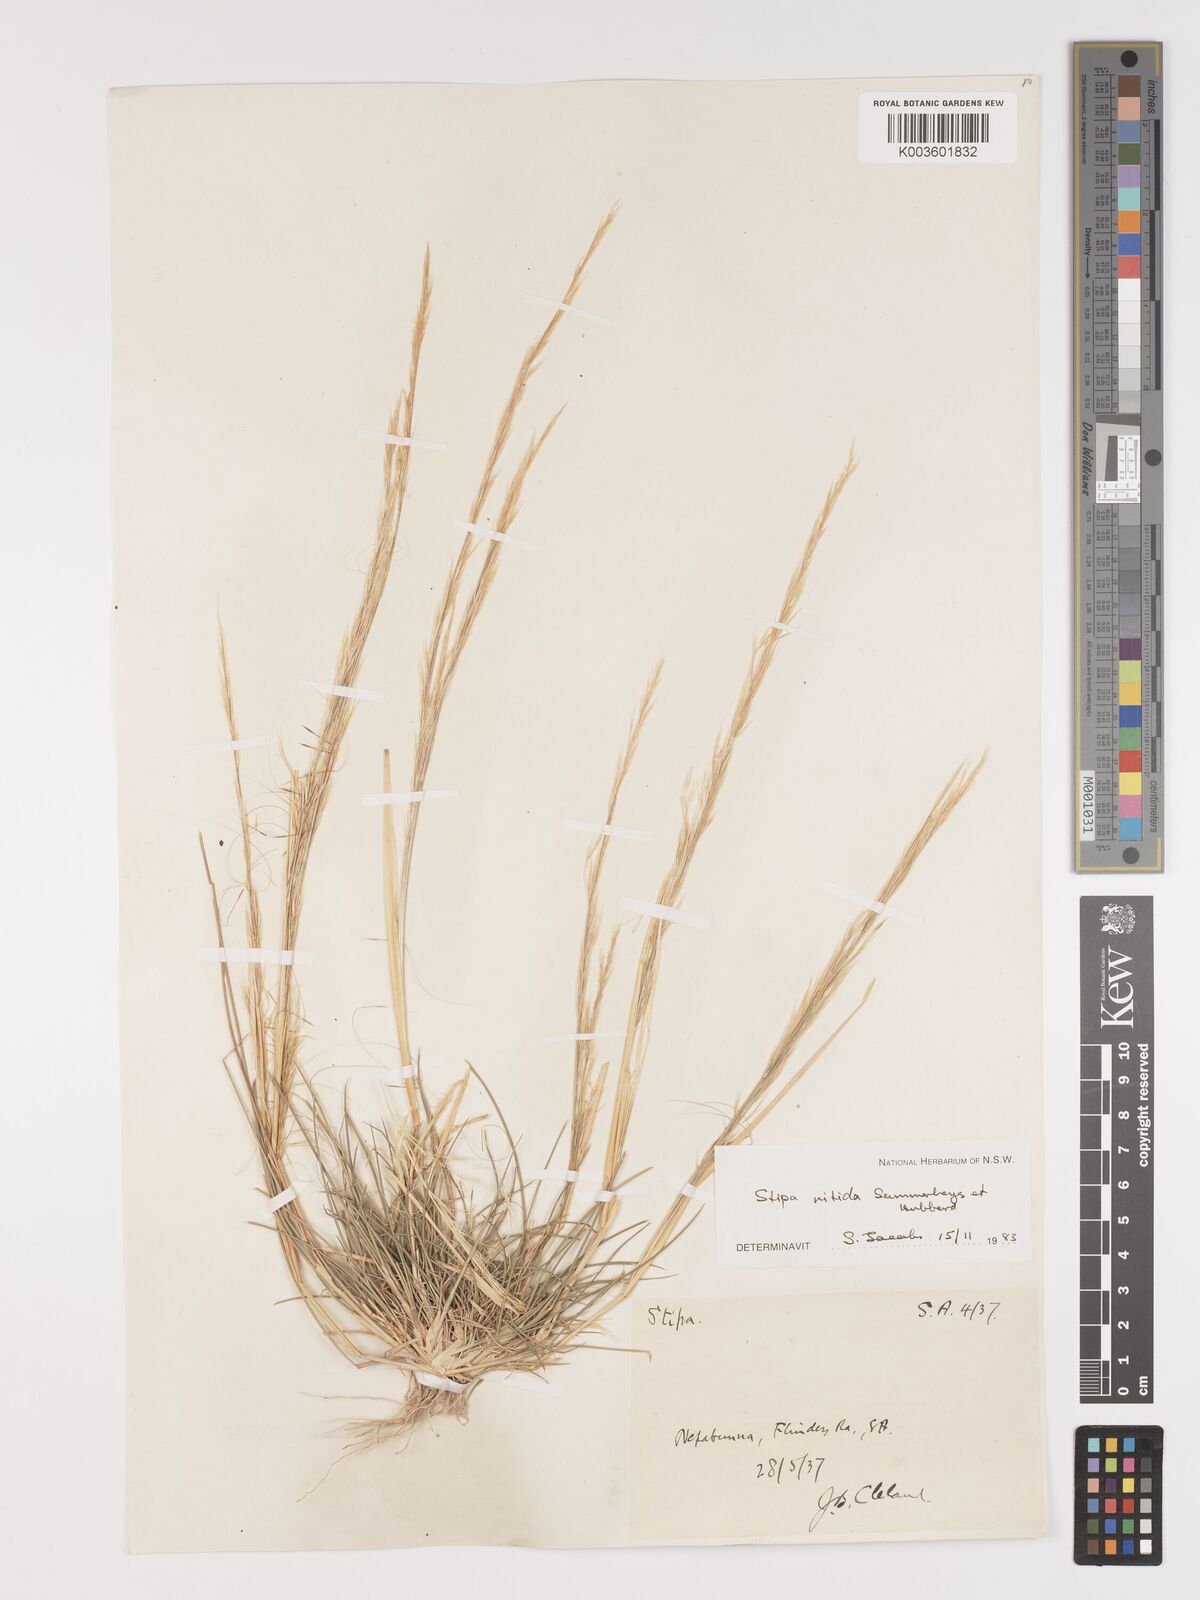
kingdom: Plantae
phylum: Tracheophyta
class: Liliopsida
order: Poales
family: Poaceae
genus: Austrostipa
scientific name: Austrostipa nitida
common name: Balcarra grass
